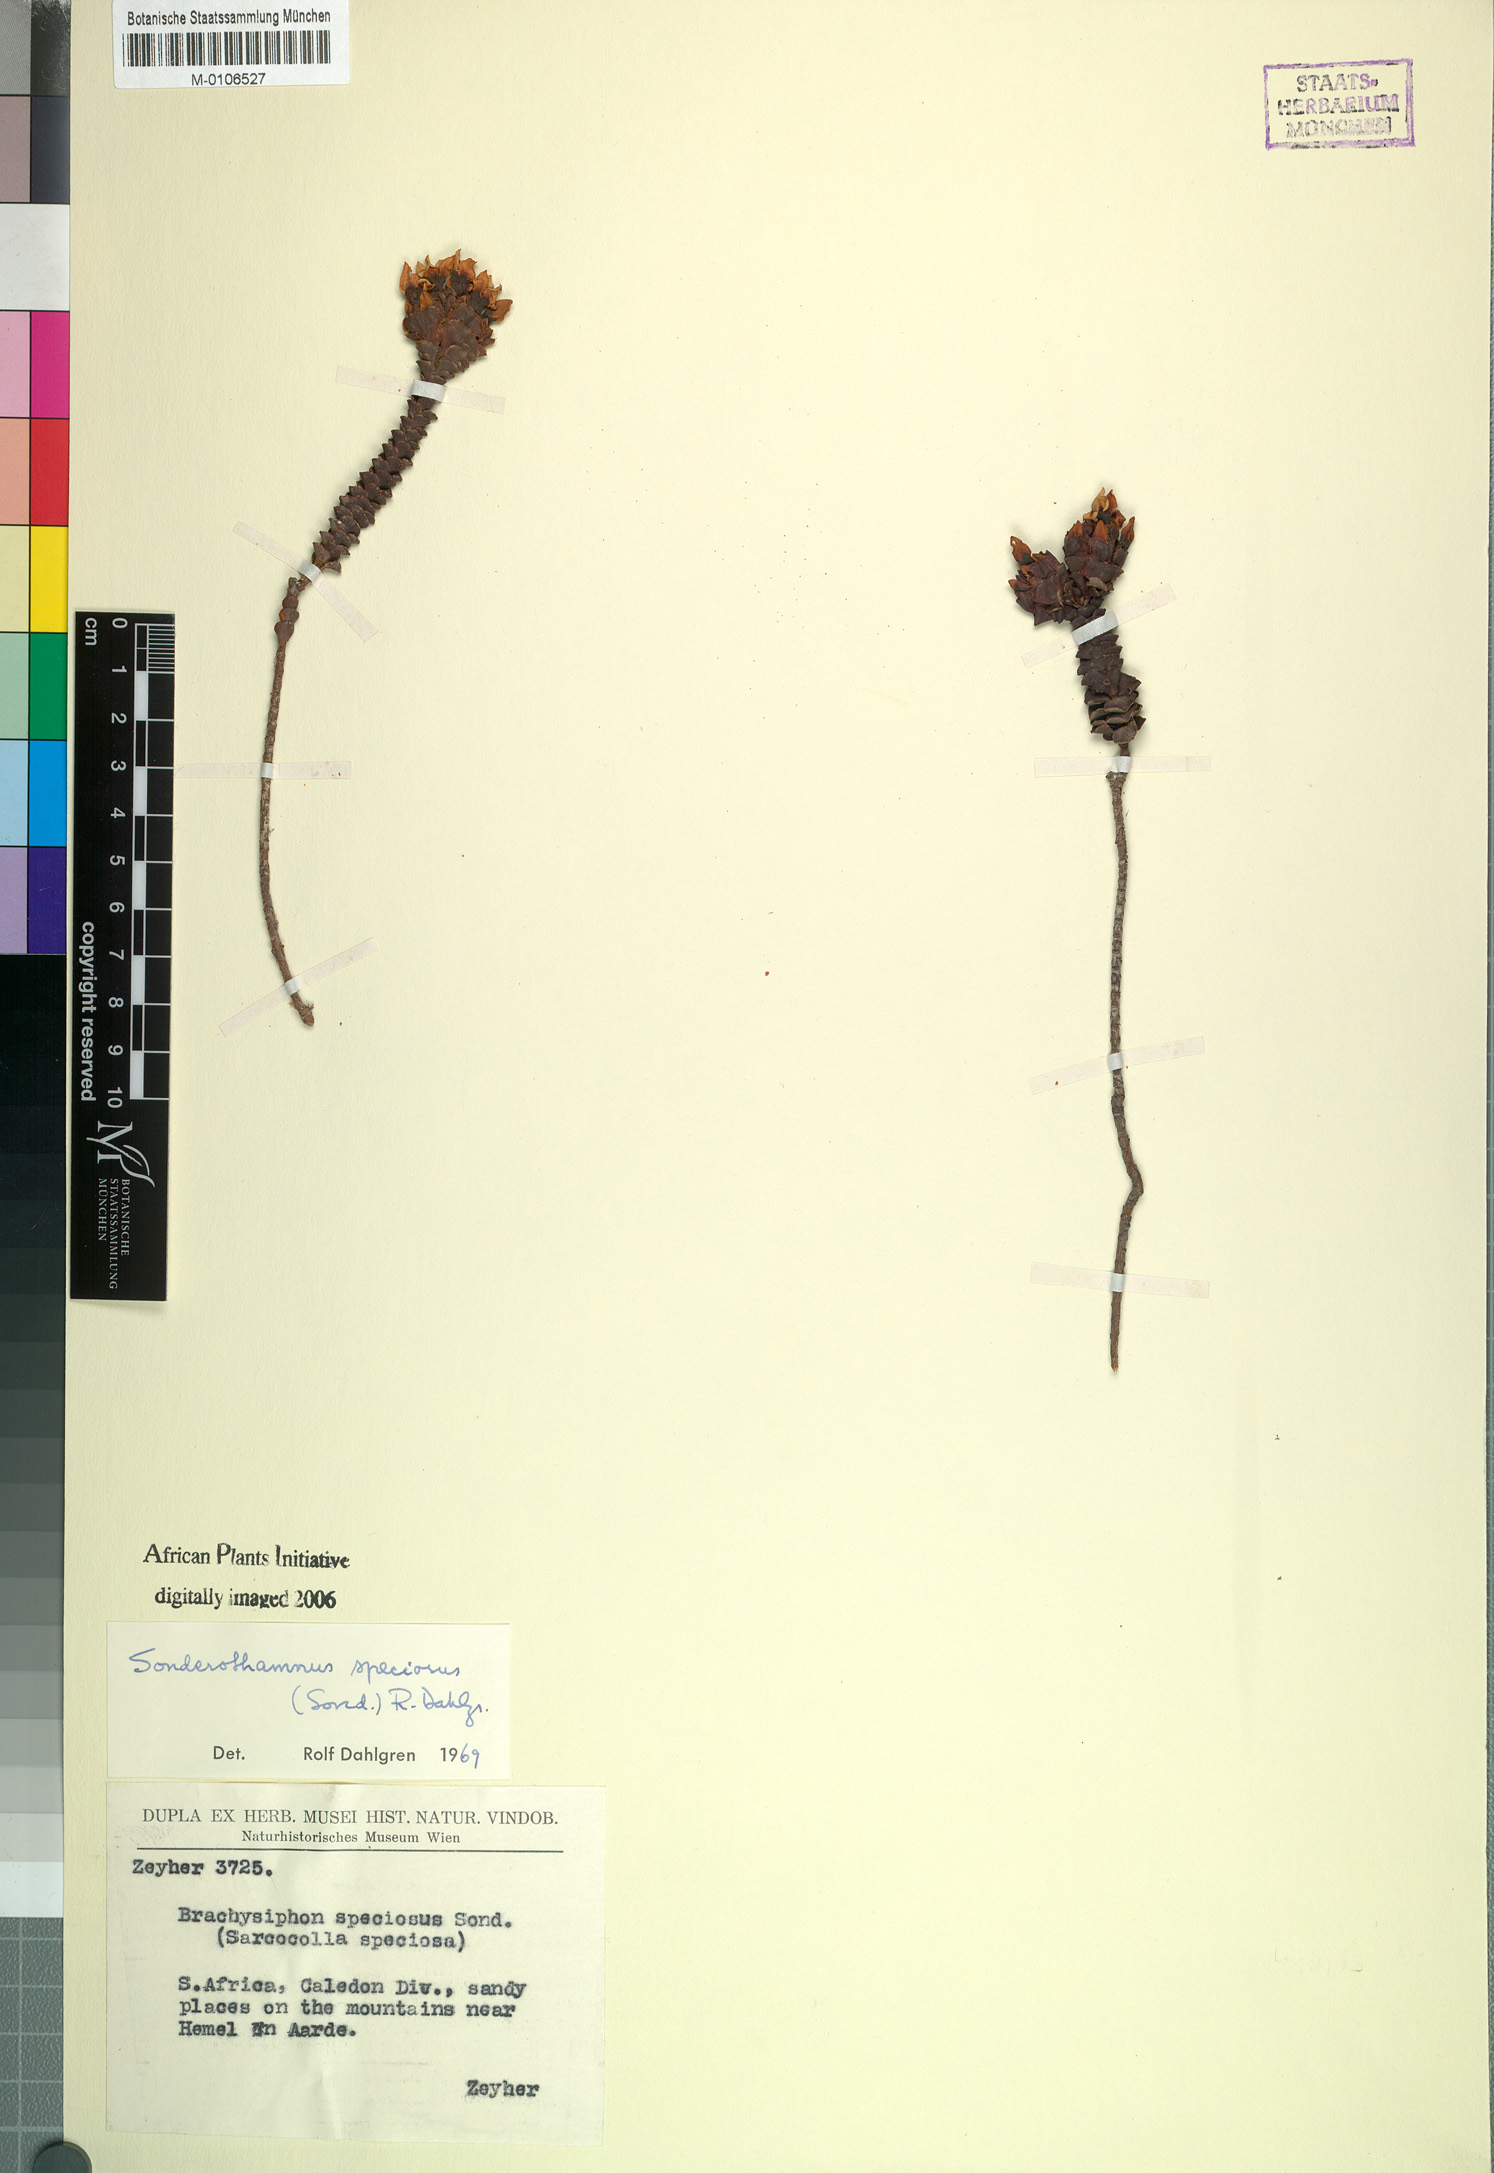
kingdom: Plantae
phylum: Tracheophyta
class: Magnoliopsida
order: Myrtales
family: Penaeaceae
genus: Sonderothamnus
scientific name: Sonderothamnus speciosus
